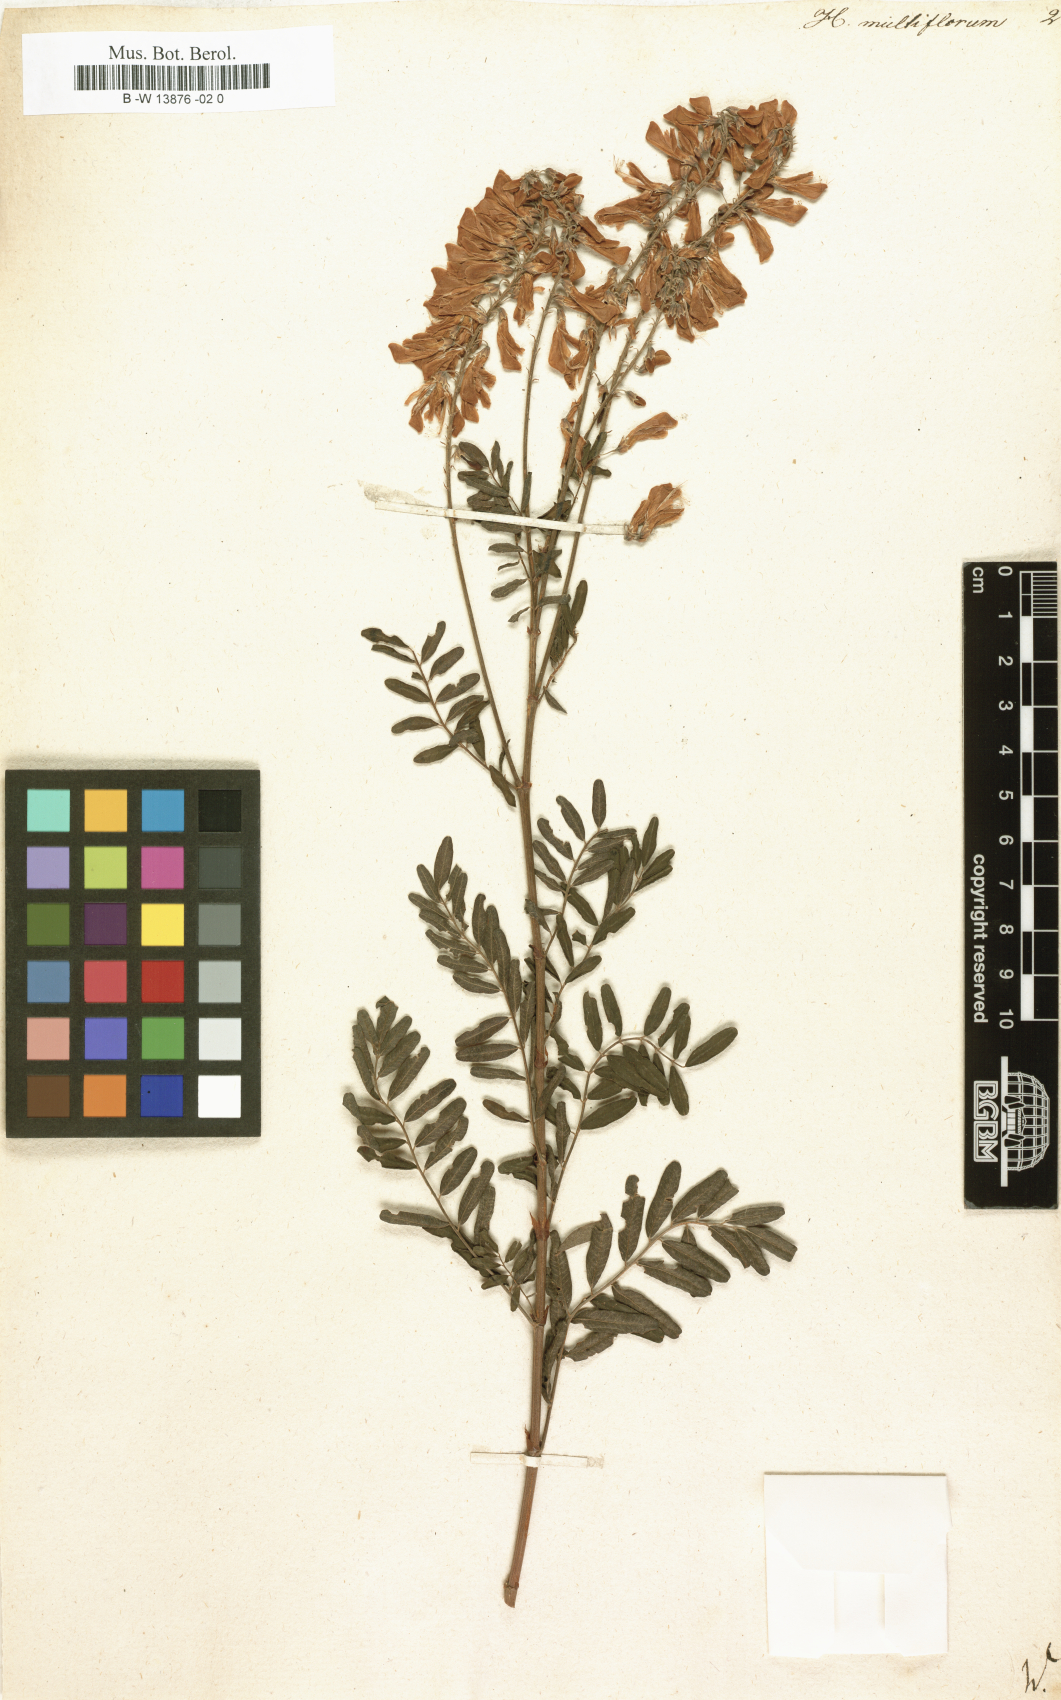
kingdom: Plantae
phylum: Tracheophyta
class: Magnoliopsida
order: Fabales
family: Fabaceae
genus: Desmodium
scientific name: Desmodium cajanifolium
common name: Tropical ticktrefoil
